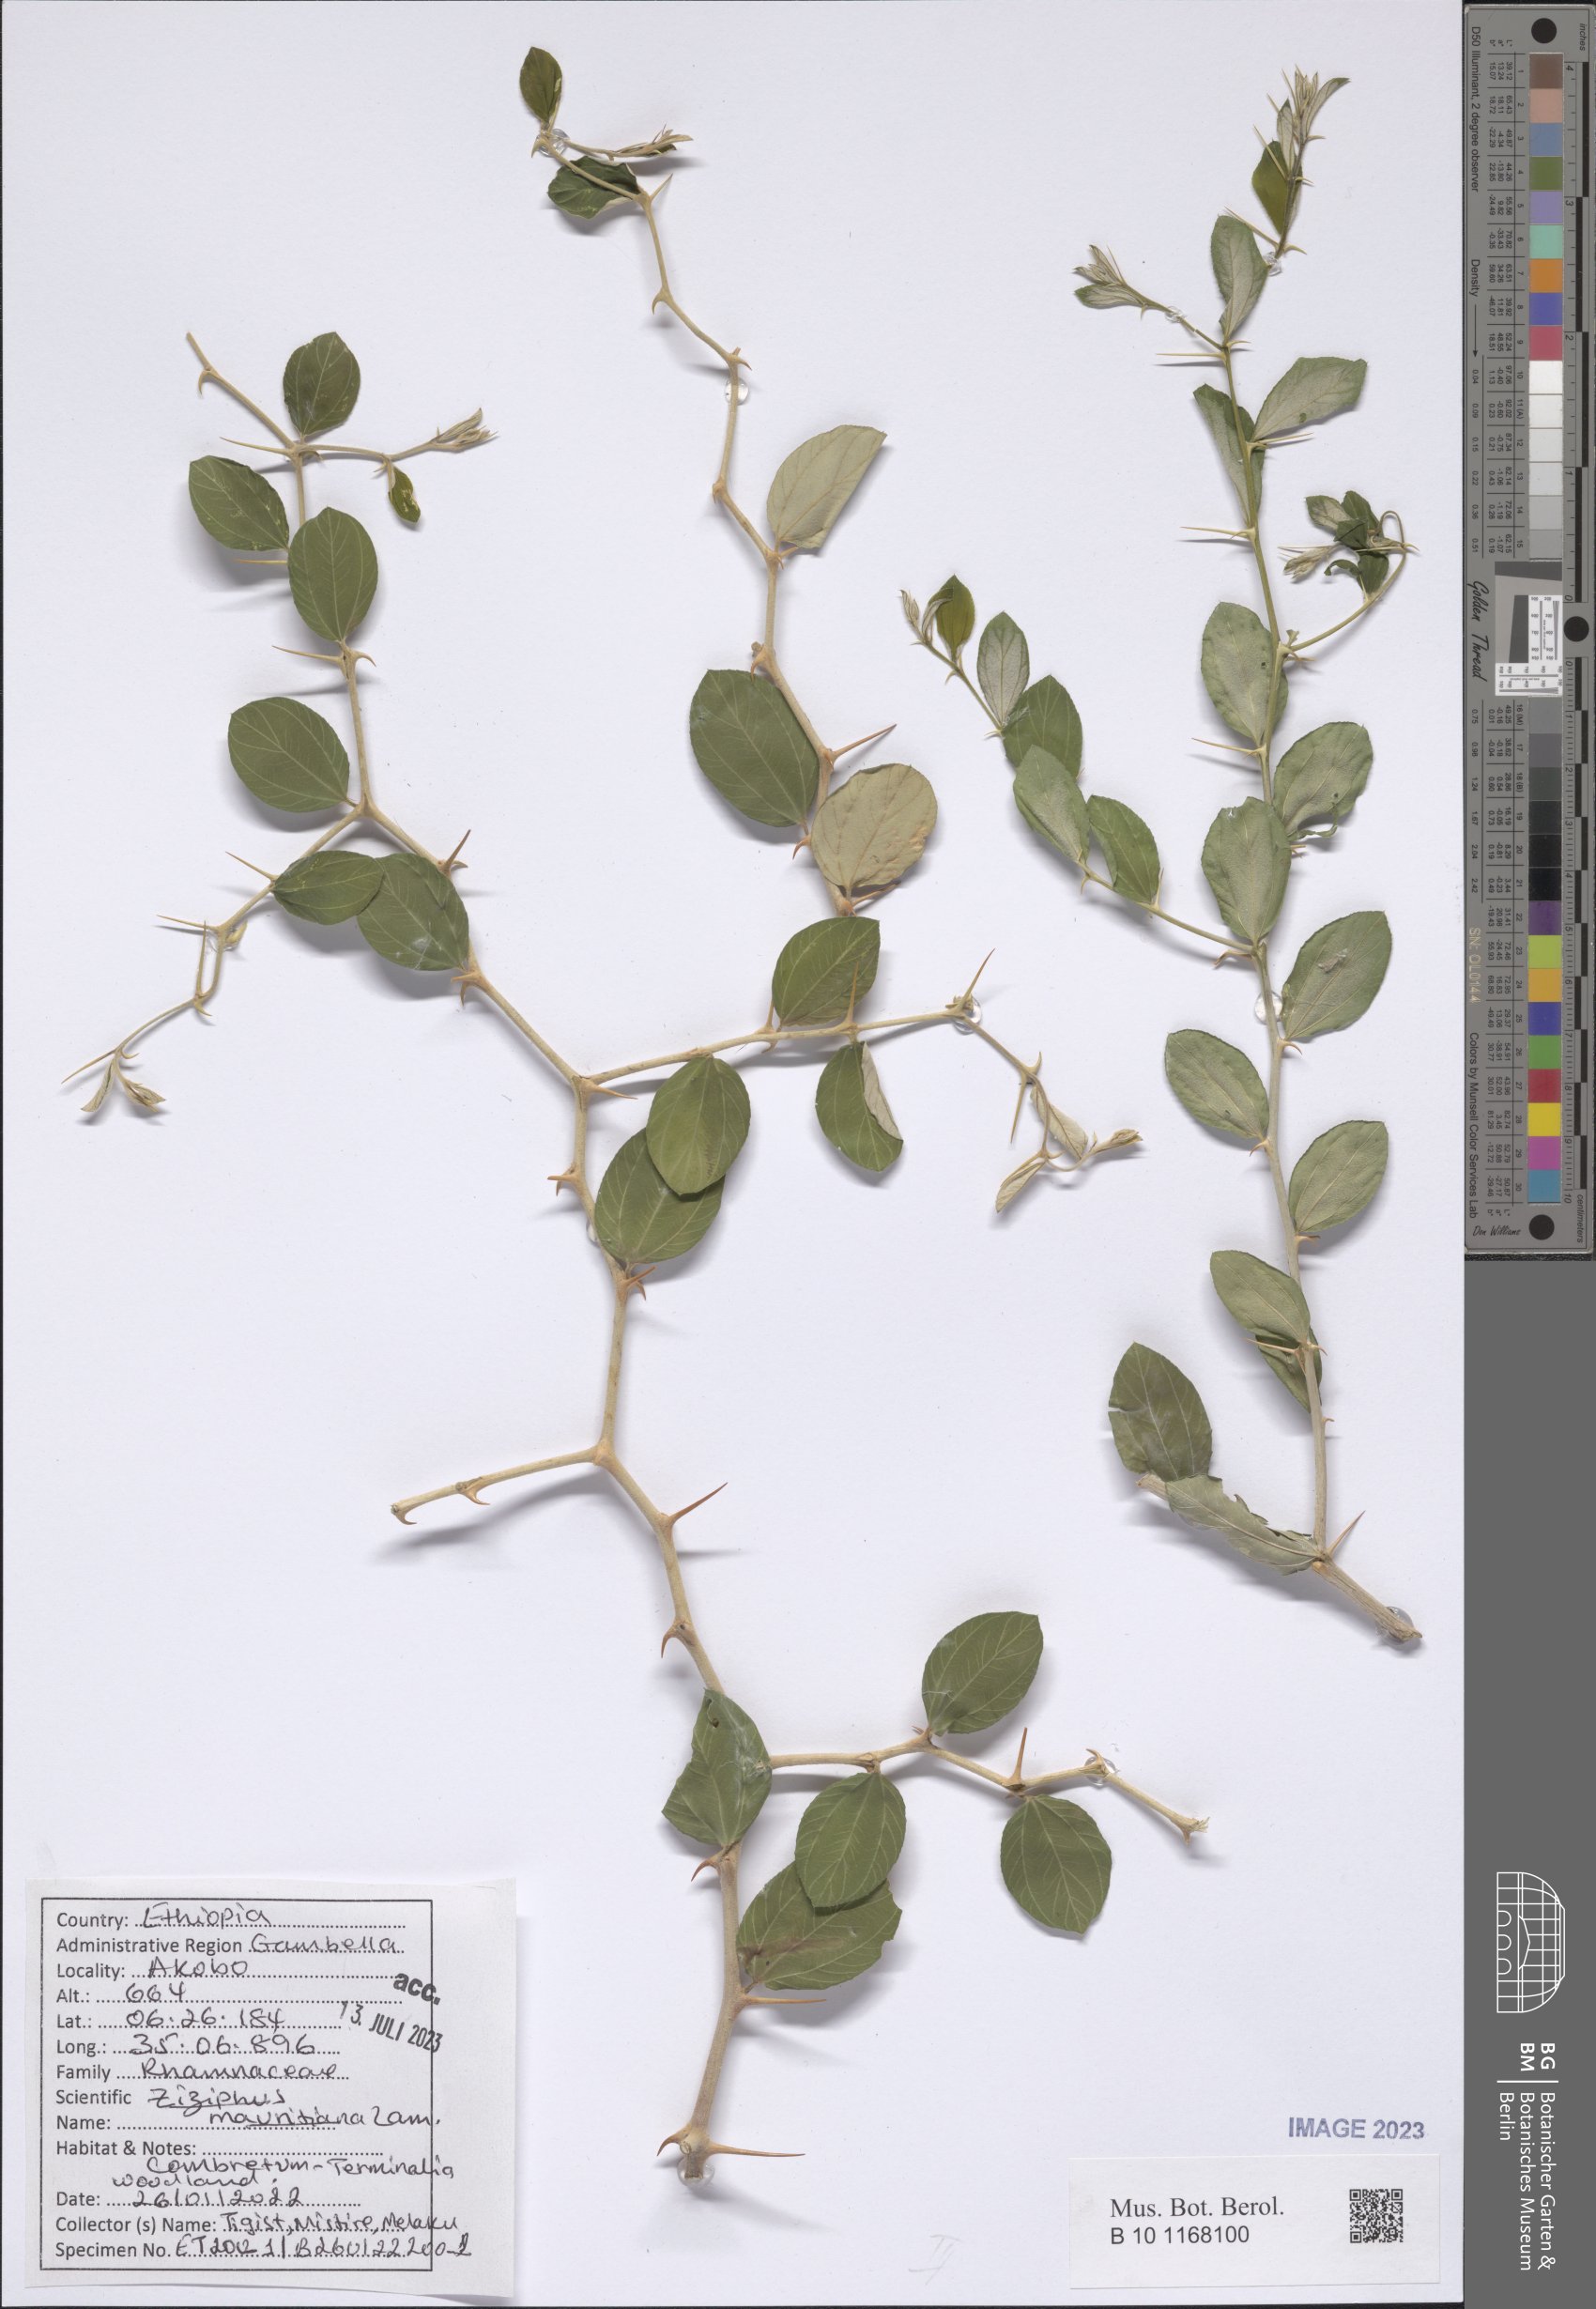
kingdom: Plantae
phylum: Tracheophyta
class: Magnoliopsida
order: Rosales
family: Rhamnaceae
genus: Ziziphus
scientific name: Ziziphus mauritiana
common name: Indian jujube
